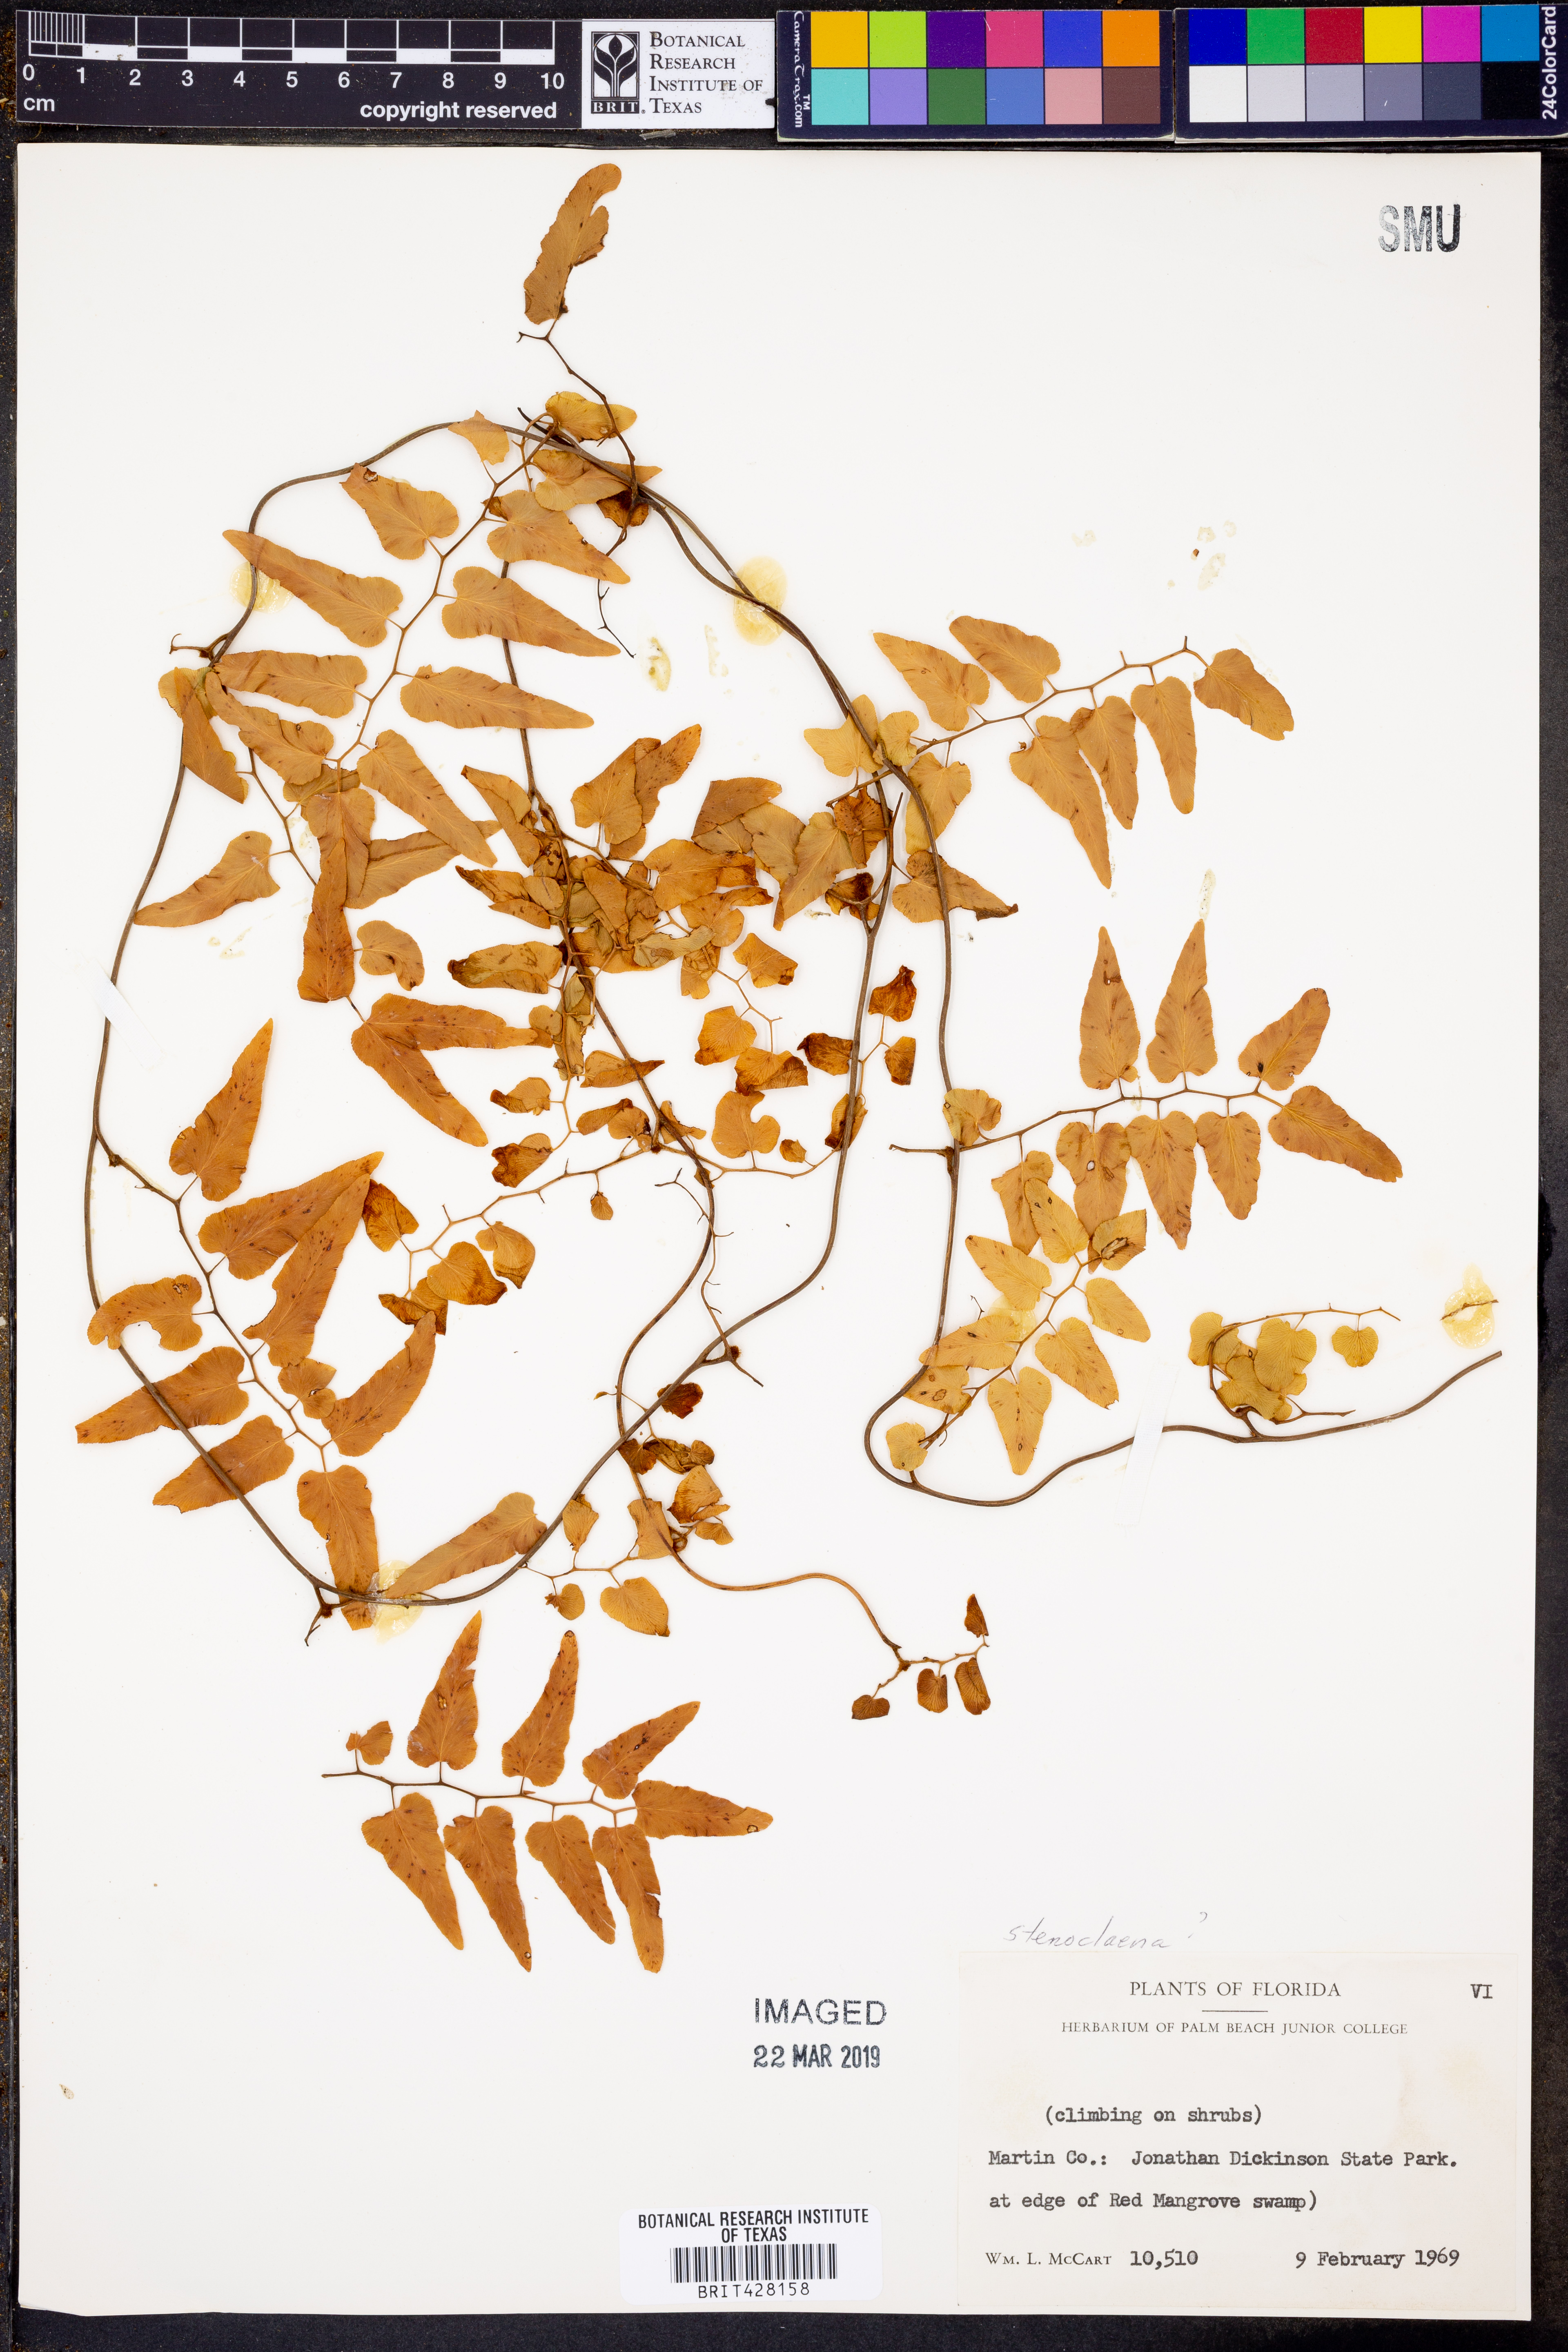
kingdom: Plantae
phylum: Tracheophyta
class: Polypodiopsida
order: Polypodiales
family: Blechnaceae
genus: Stenochlaena
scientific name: Stenochlaena
